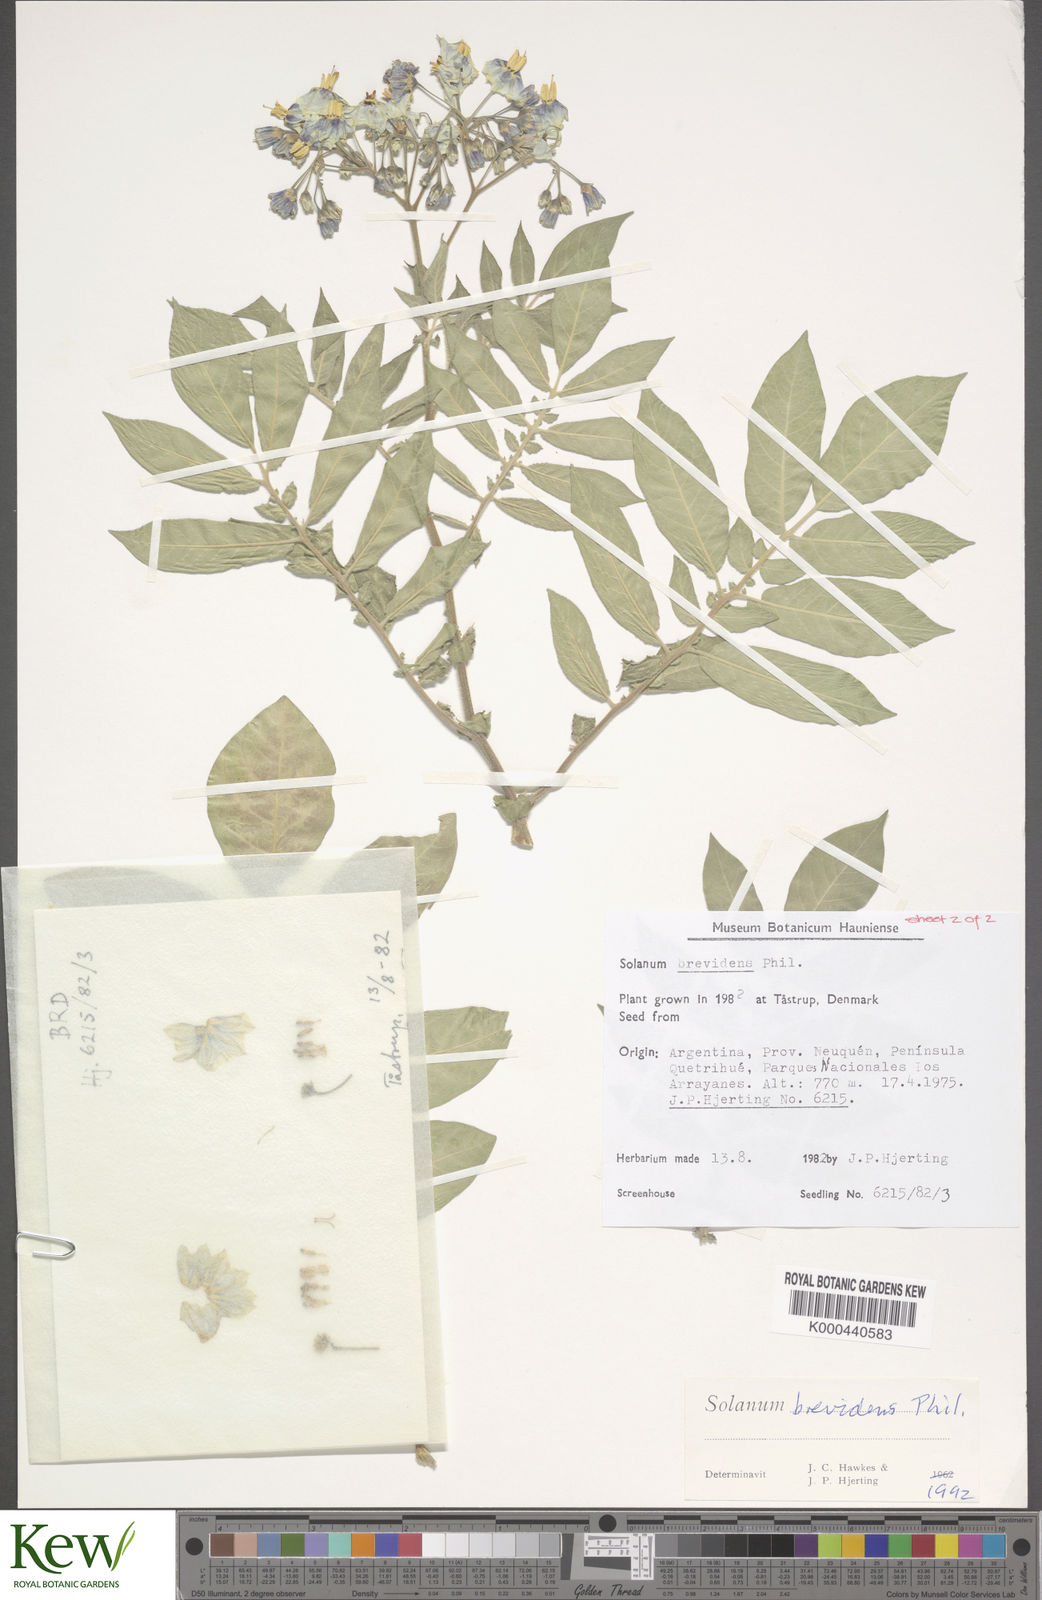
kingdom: Plantae
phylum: Tracheophyta
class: Magnoliopsida
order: Solanales
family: Solanaceae
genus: Solanum
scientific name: Solanum palustre
